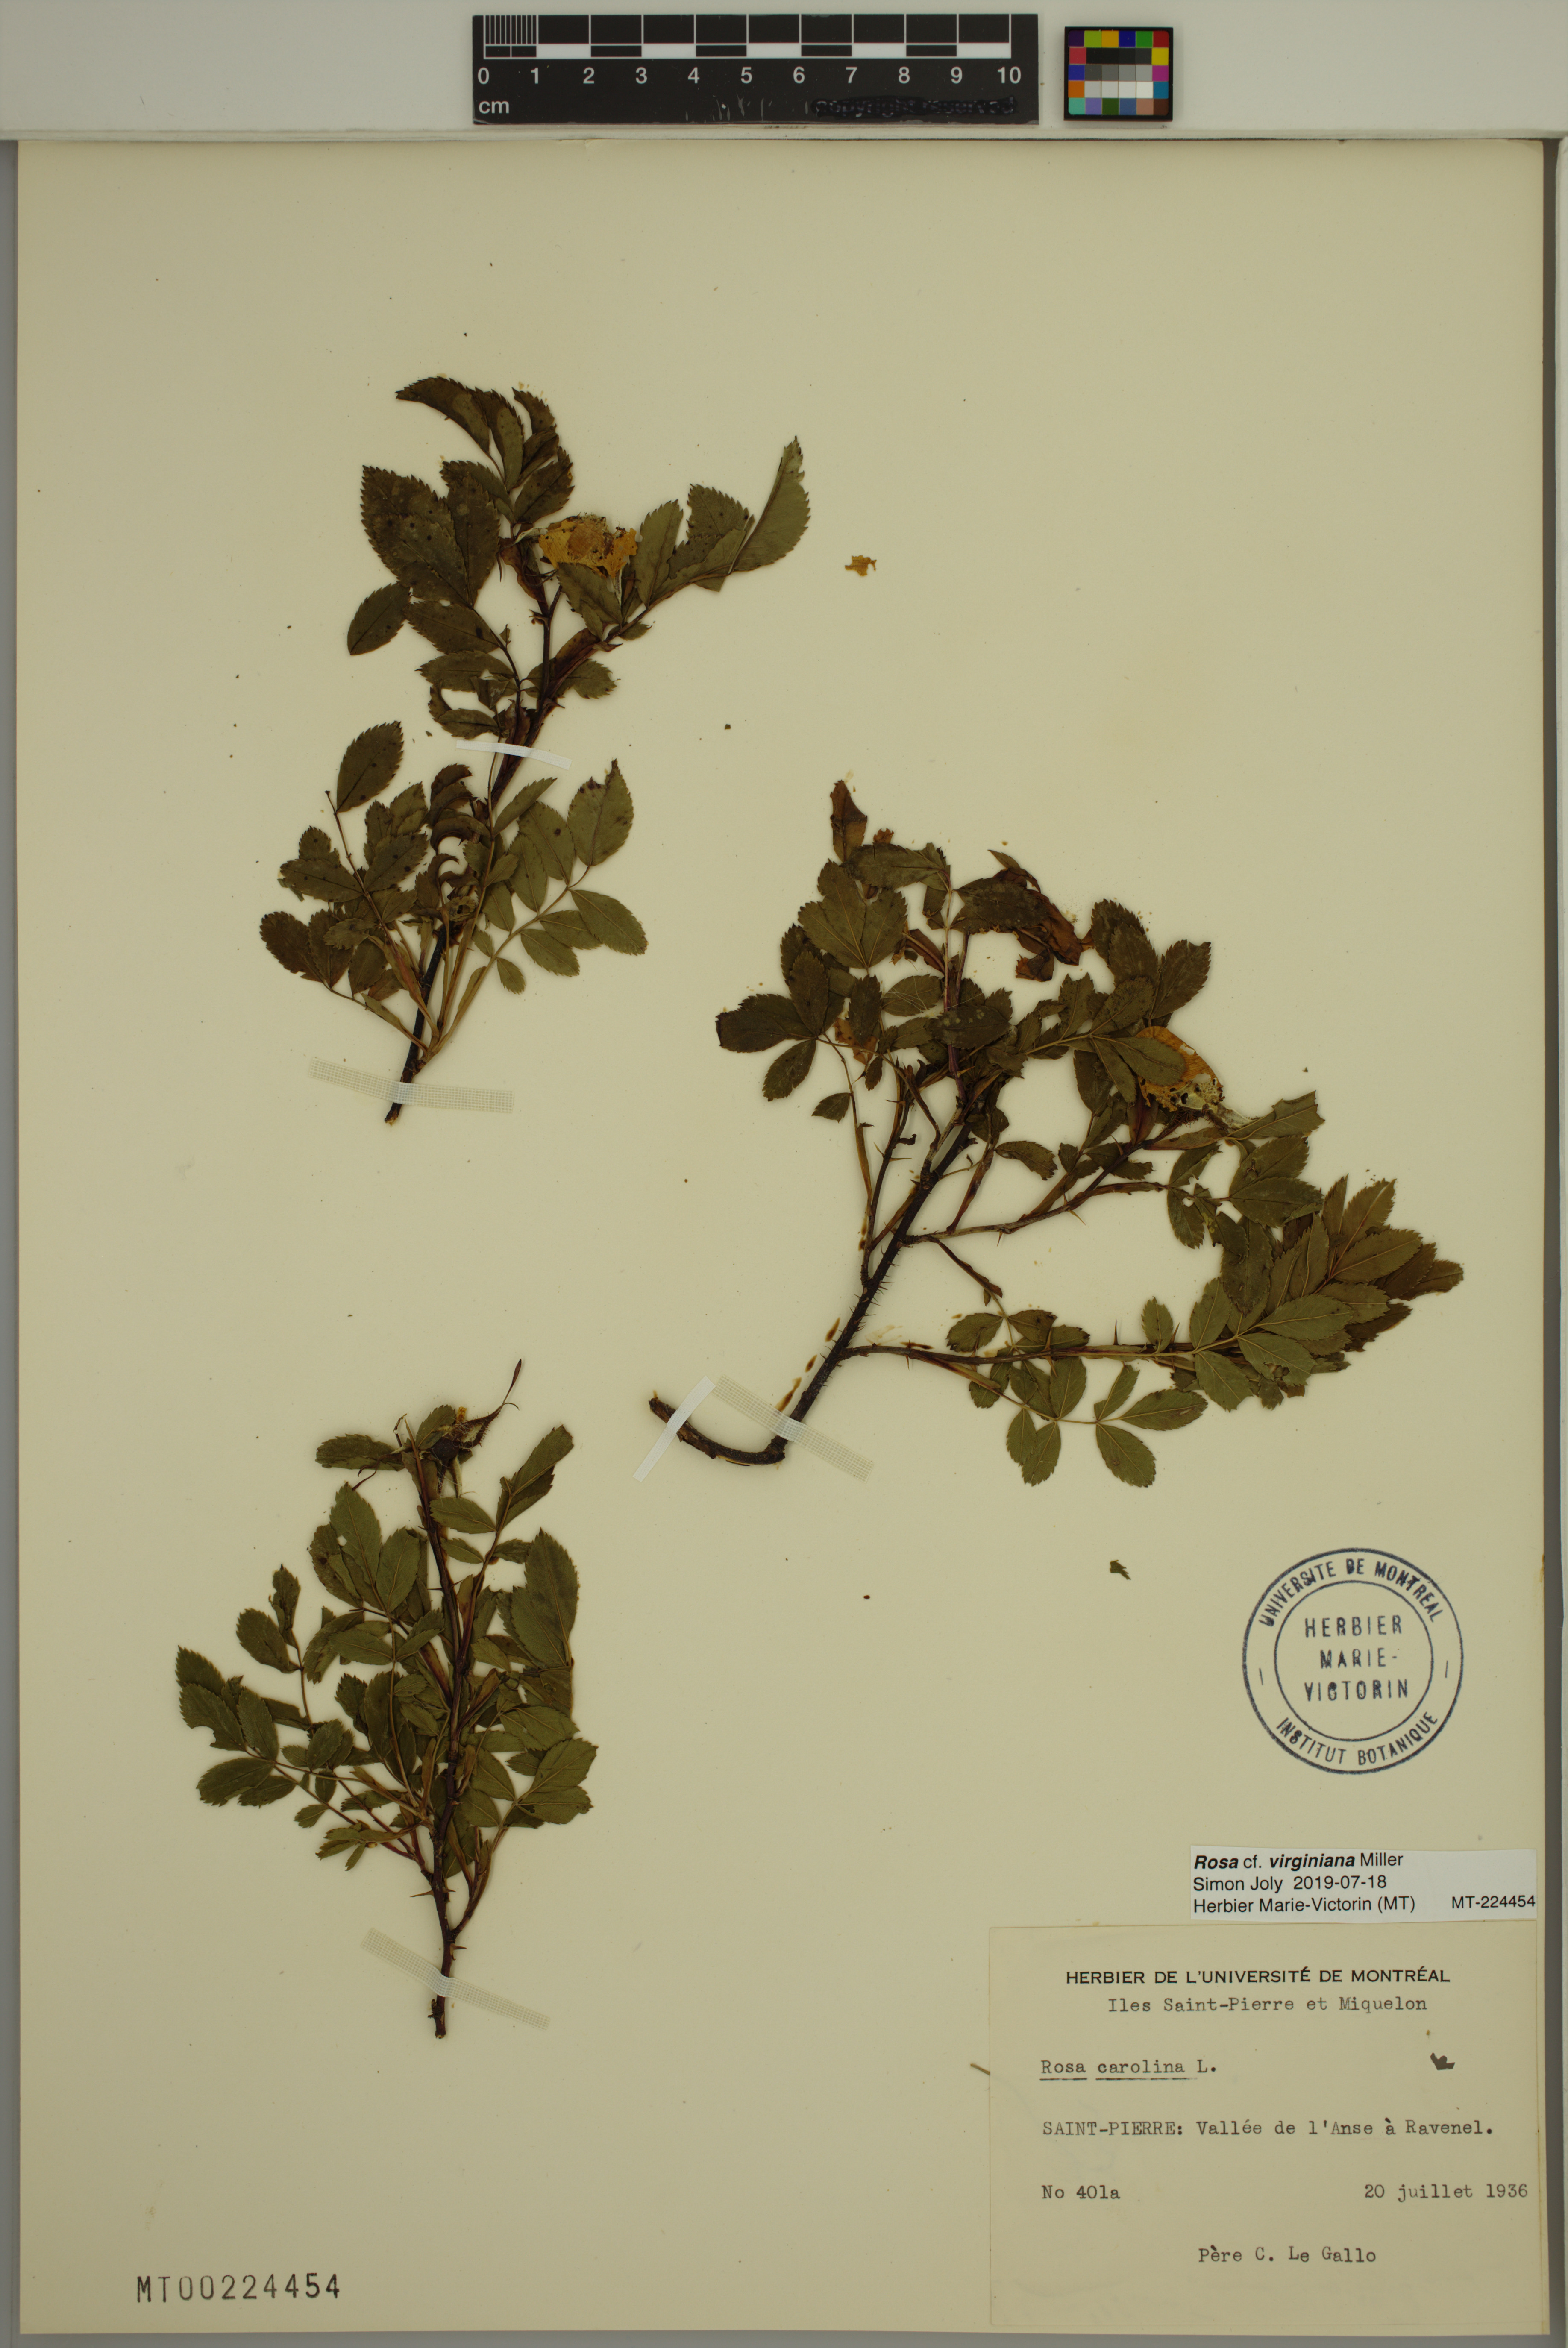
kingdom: Plantae
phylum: Tracheophyta
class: Magnoliopsida
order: Rosales
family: Rosaceae
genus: Rosa
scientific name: Rosa carolina
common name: Pasture rose
